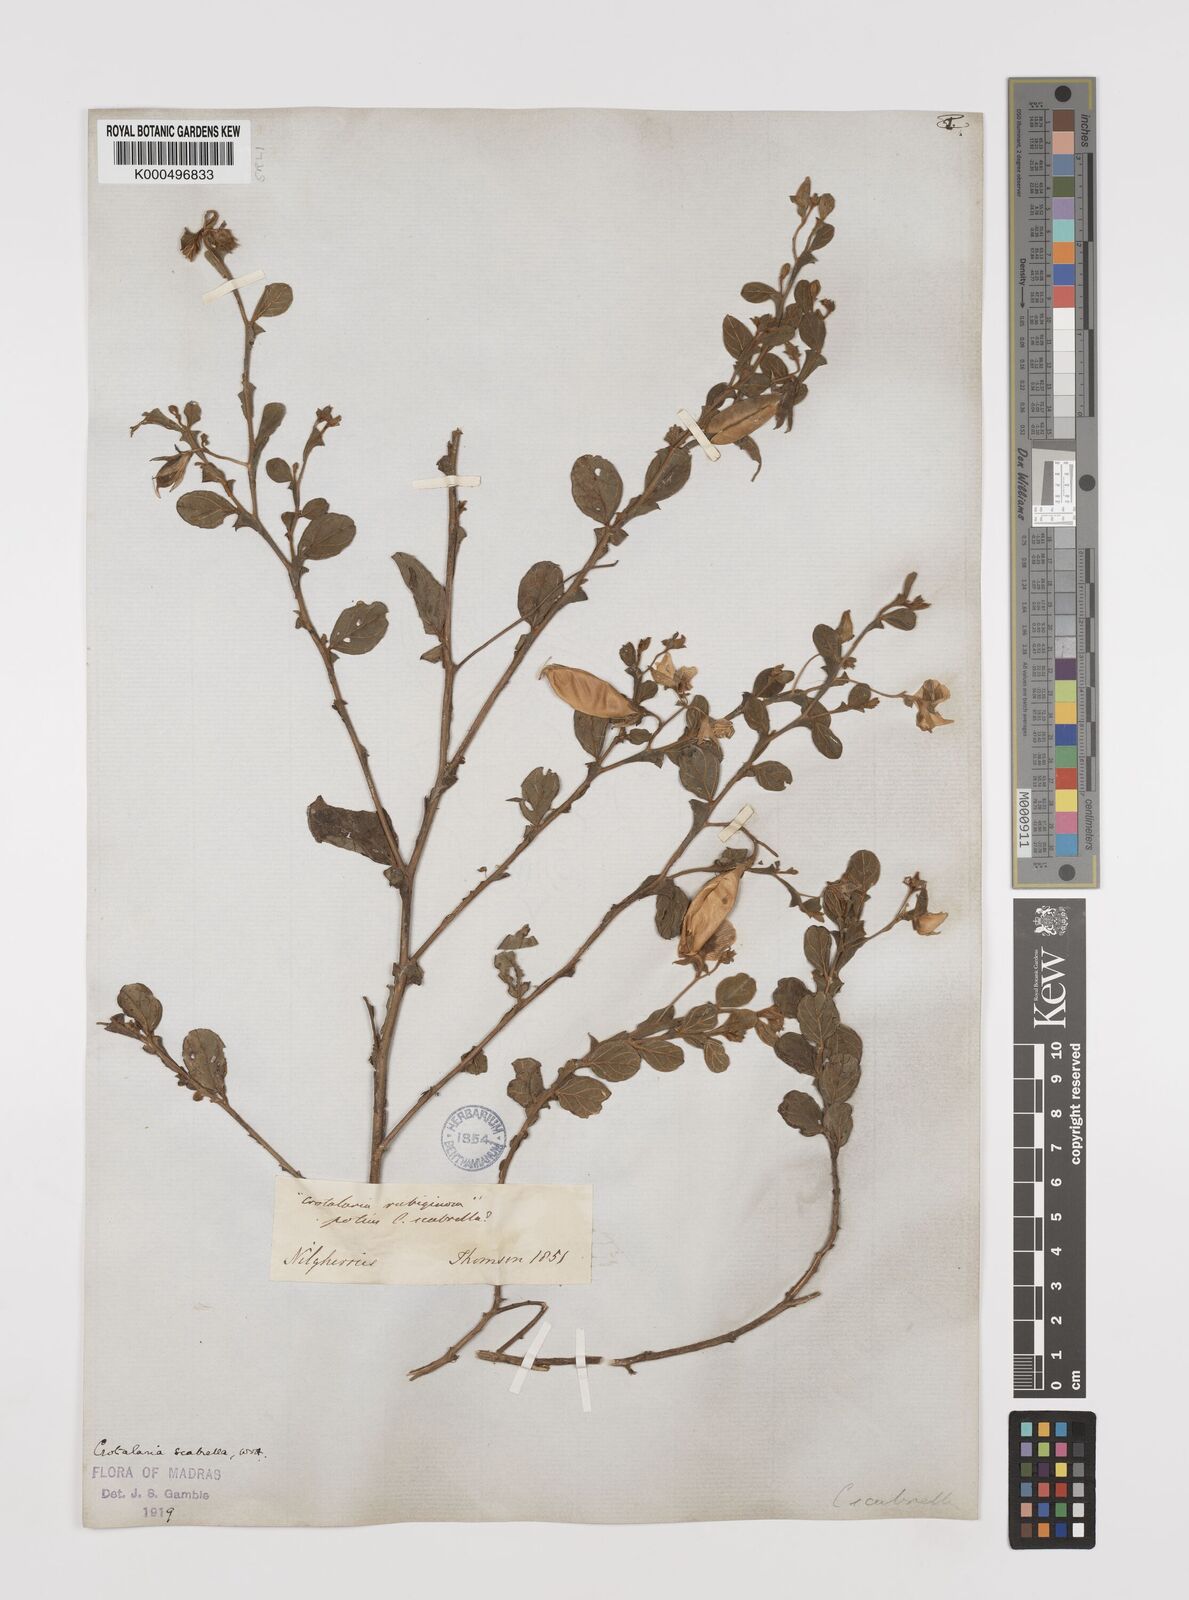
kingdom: Plantae
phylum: Tracheophyta
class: Magnoliopsida
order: Fabales
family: Fabaceae
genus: Crotalaria
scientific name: Crotalaria scabrella
